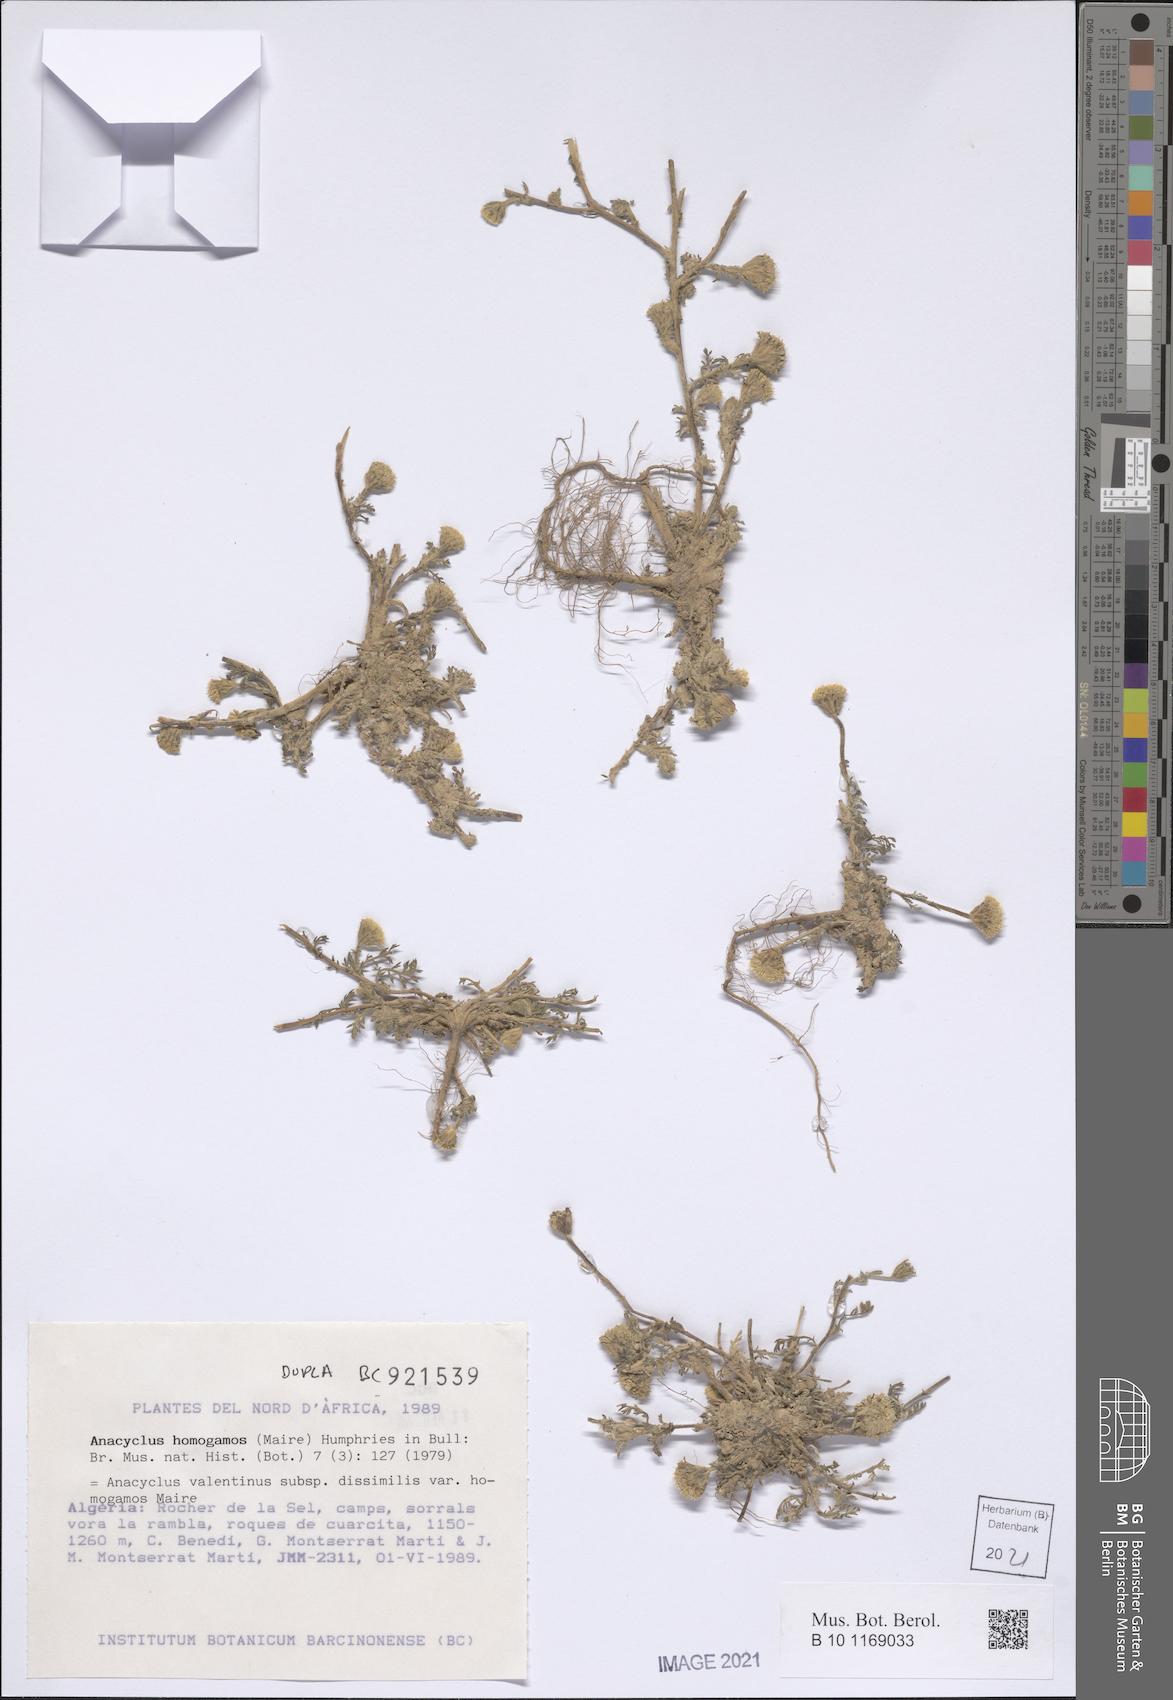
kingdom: Plantae
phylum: Tracheophyta
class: Magnoliopsida
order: Asterales
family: Asteraceae
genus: Anacyclus
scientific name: Anacyclus homogamos
